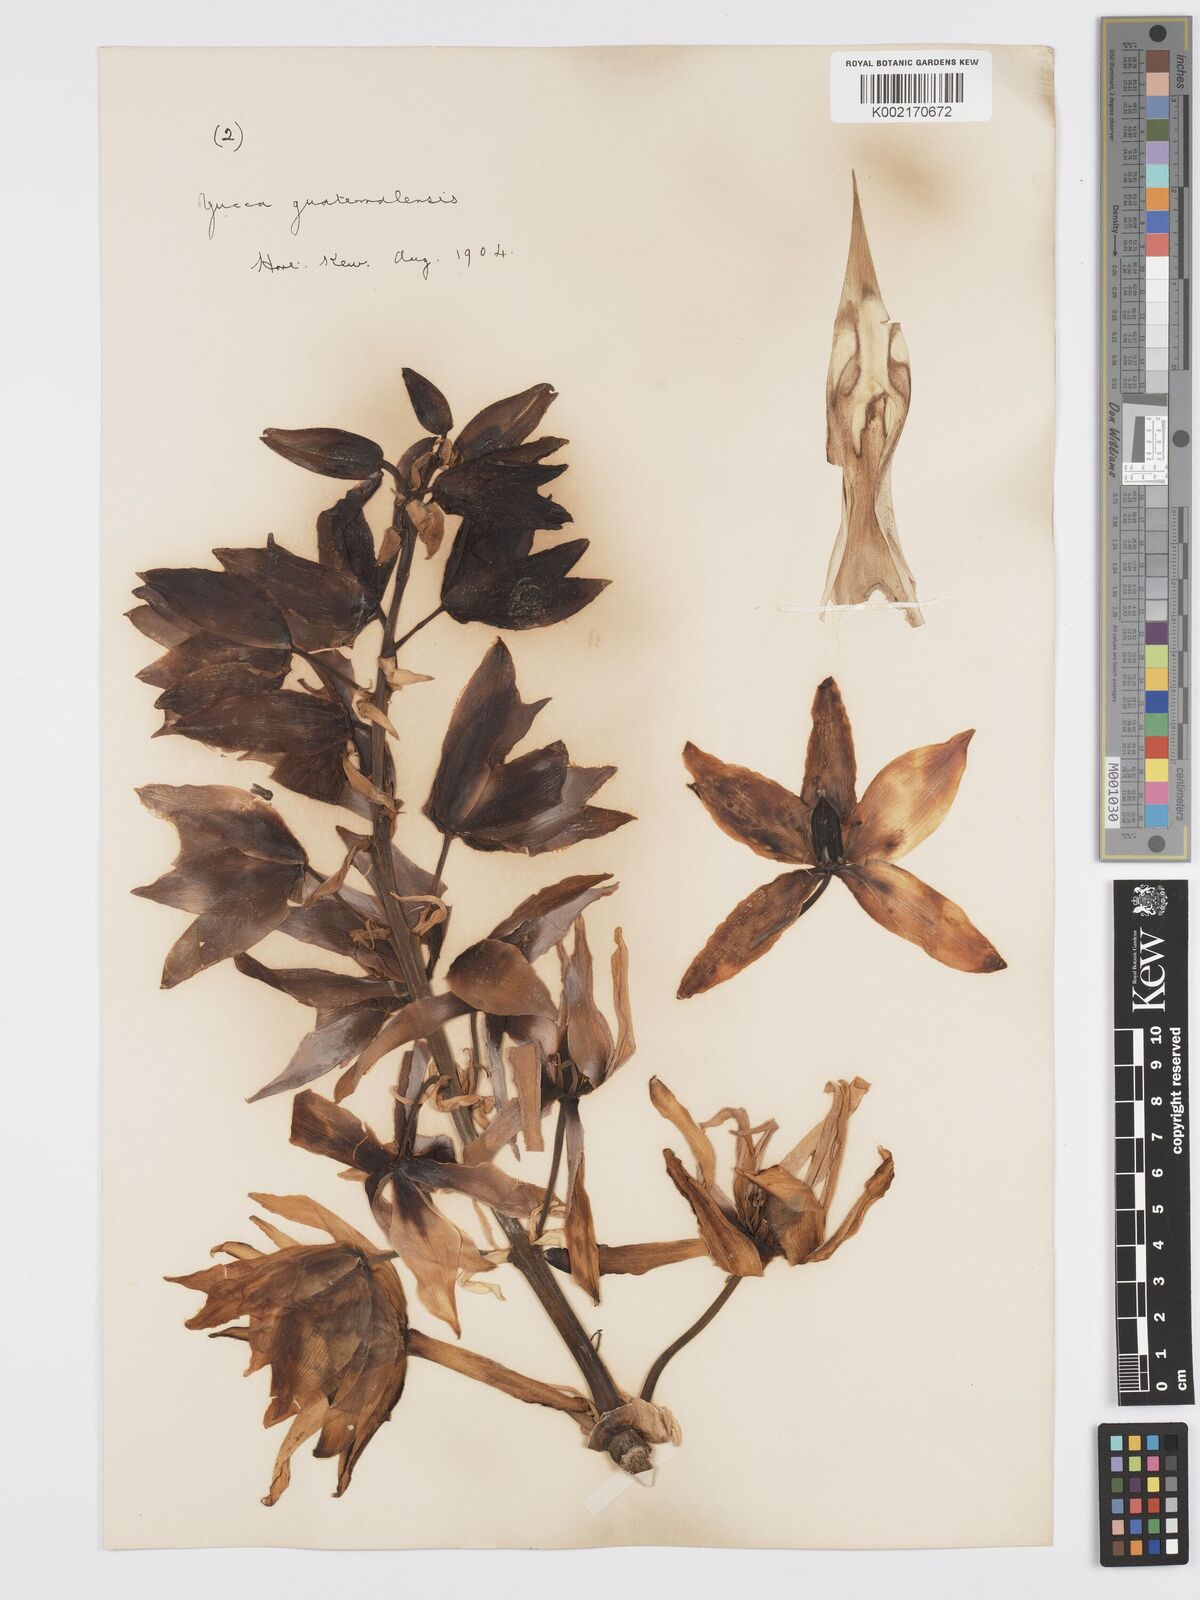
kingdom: Plantae
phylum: Tracheophyta
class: Liliopsida
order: Asparagales
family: Asparagaceae
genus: Yucca
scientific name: Yucca gigantea
